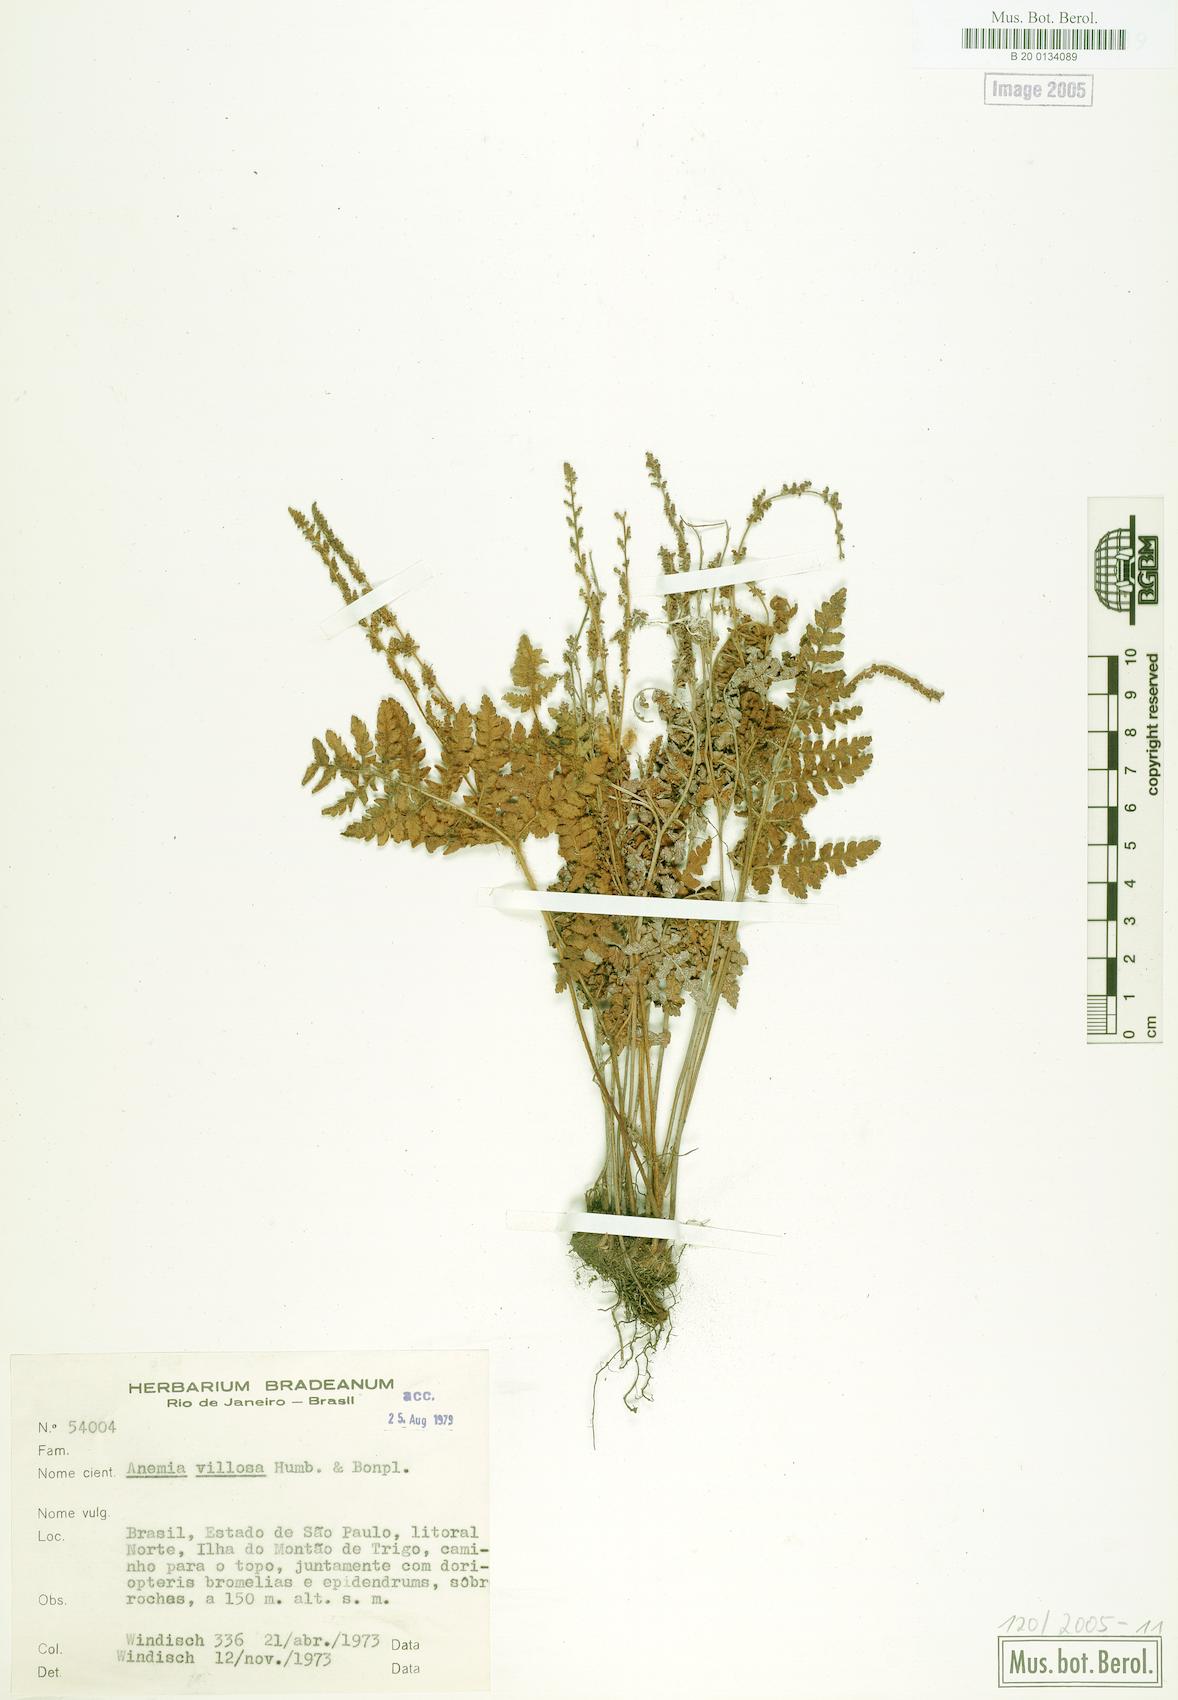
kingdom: Plantae
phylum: Tracheophyta
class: Polypodiopsida
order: Schizaeales
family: Anemiaceae
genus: Anemia
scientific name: Anemia tomentosa
